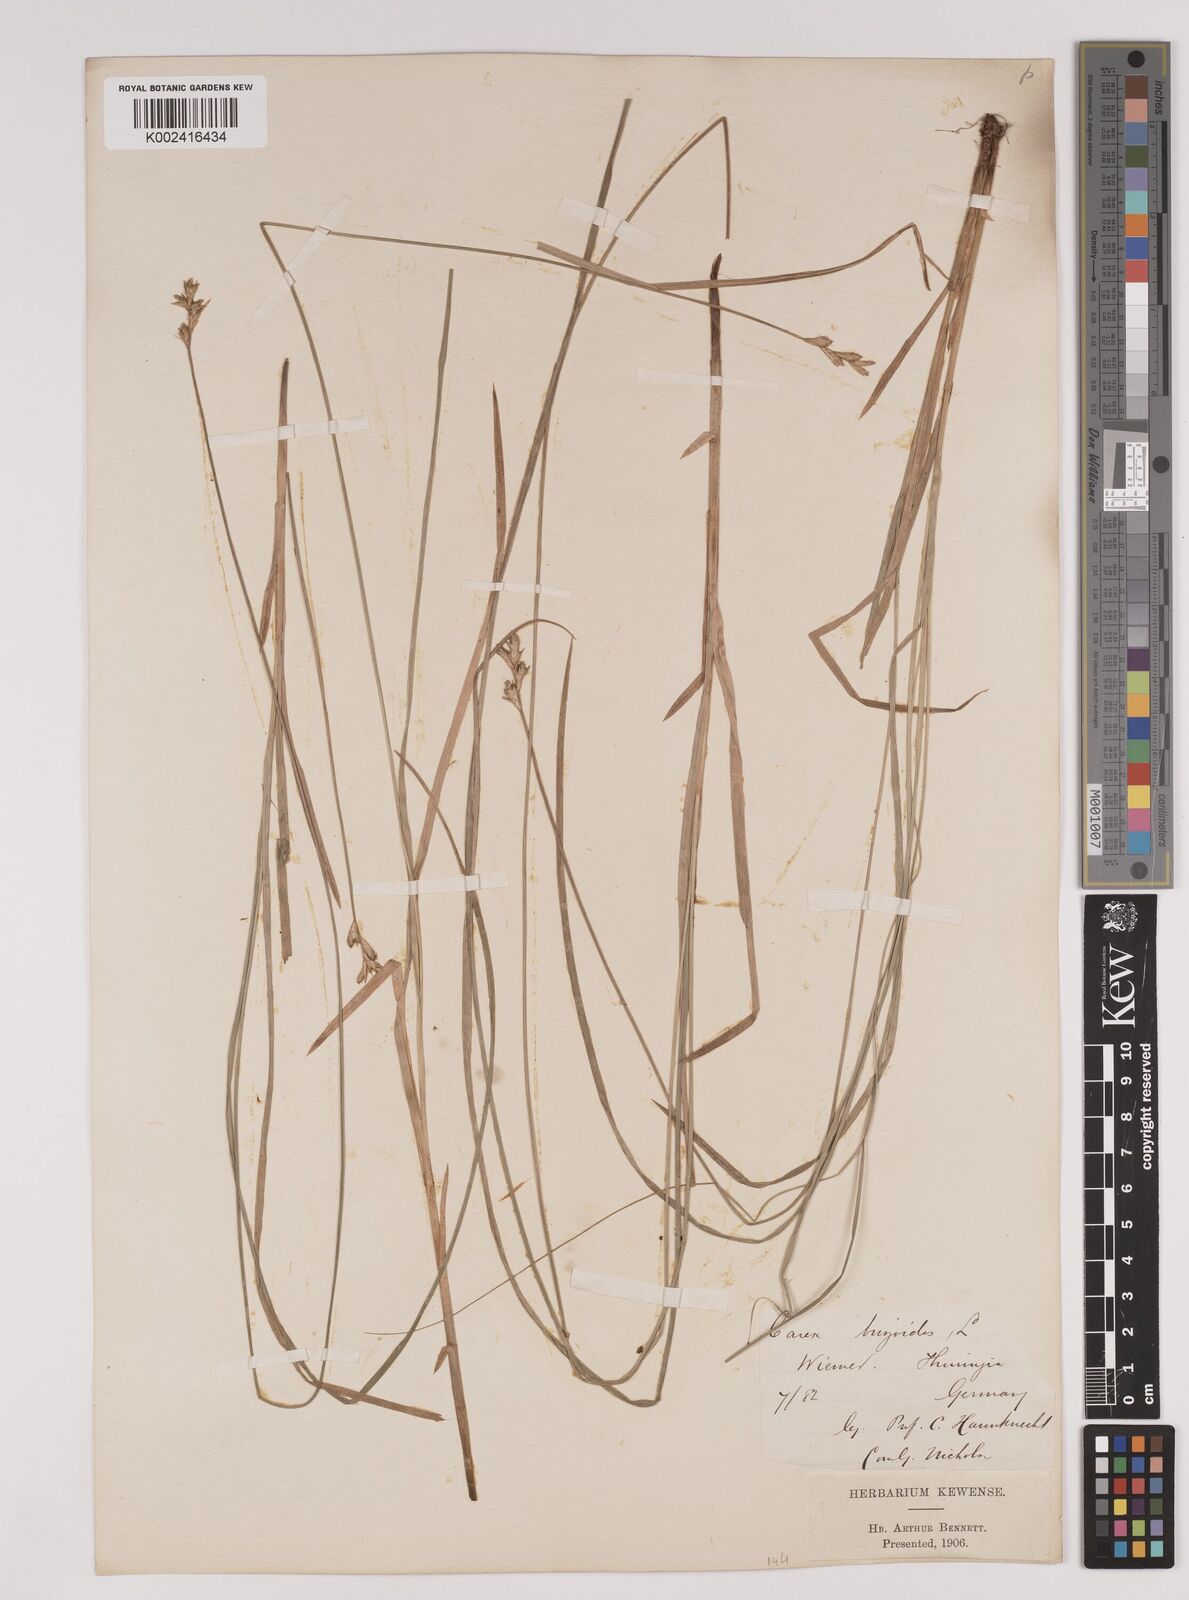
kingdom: Plantae
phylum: Tracheophyta
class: Liliopsida
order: Poales
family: Cyperaceae
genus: Carex
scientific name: Carex brizoides
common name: Quaking-grass sedge
